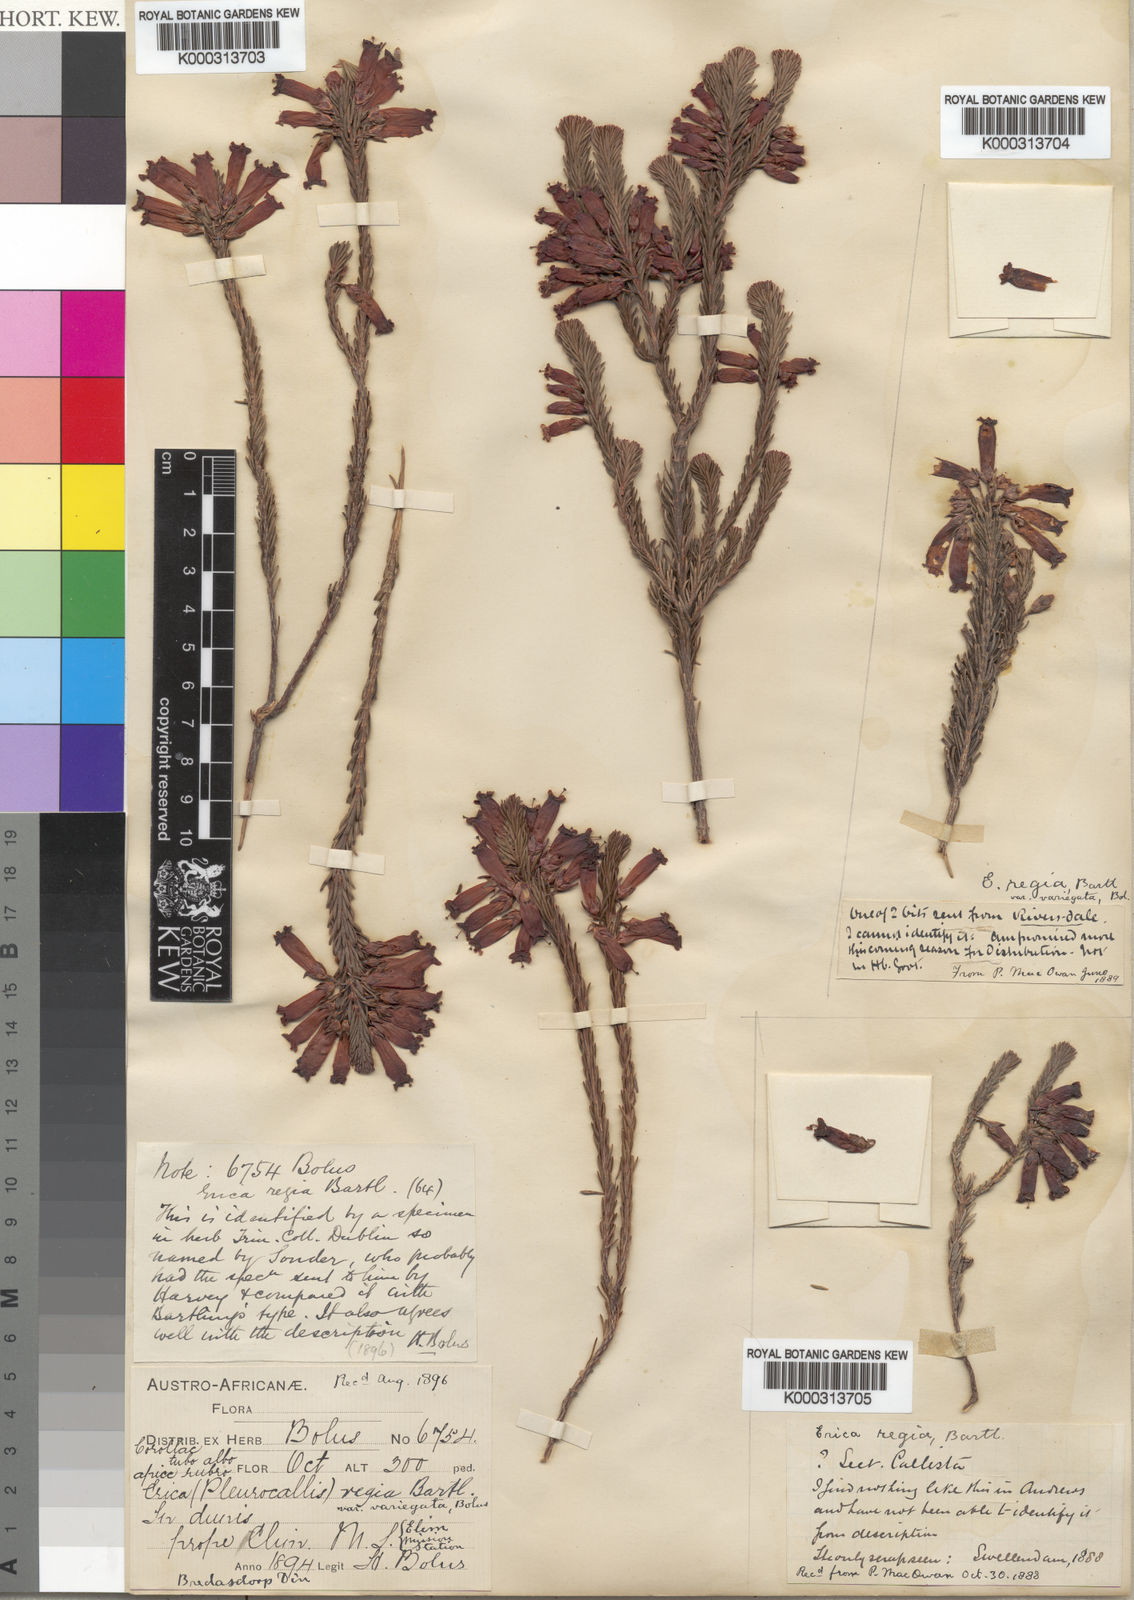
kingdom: Plantae
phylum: Tracheophyta
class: Magnoliopsida
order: Ericales
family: Ericaceae
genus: Erica
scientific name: Erica regia
